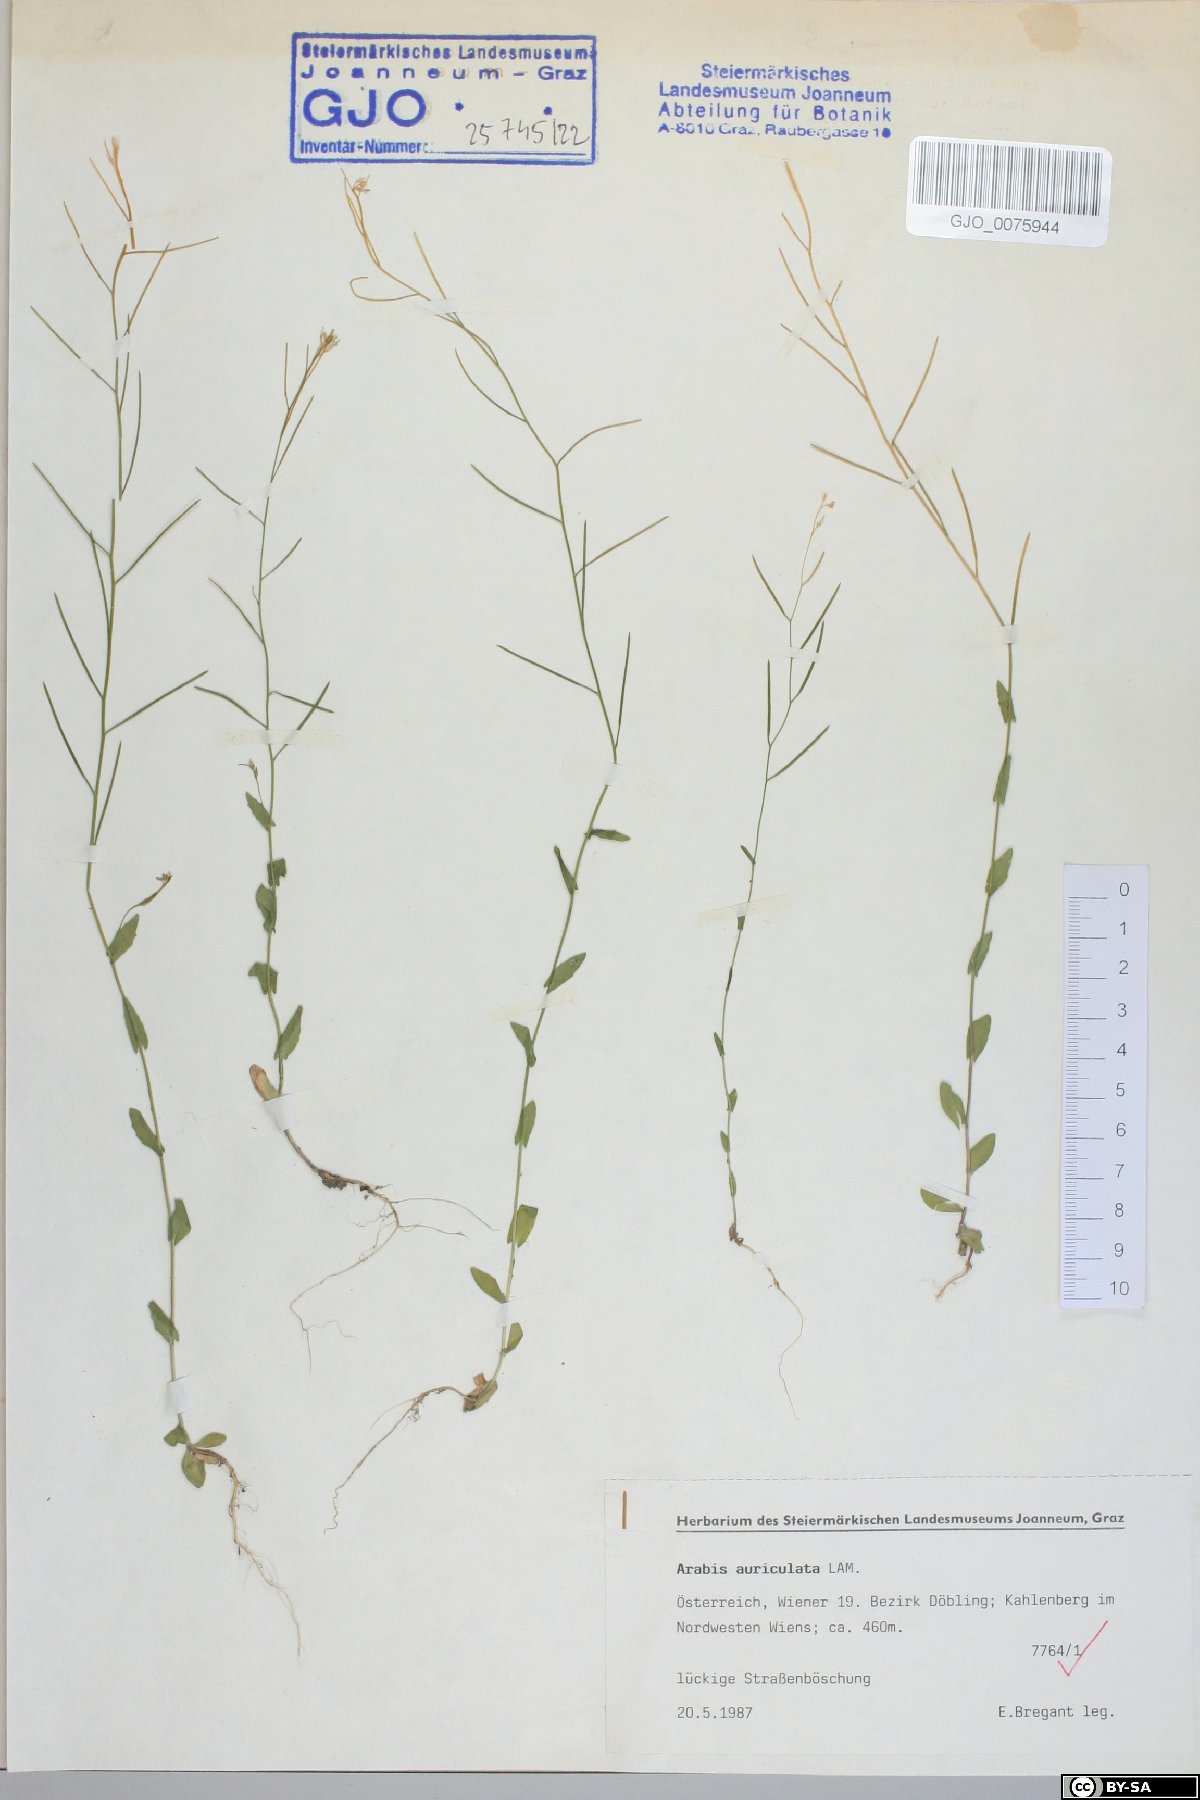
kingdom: Plantae
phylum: Tracheophyta
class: Magnoliopsida
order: Brassicales
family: Brassicaceae
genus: Arabis
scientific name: Arabis auriculata
